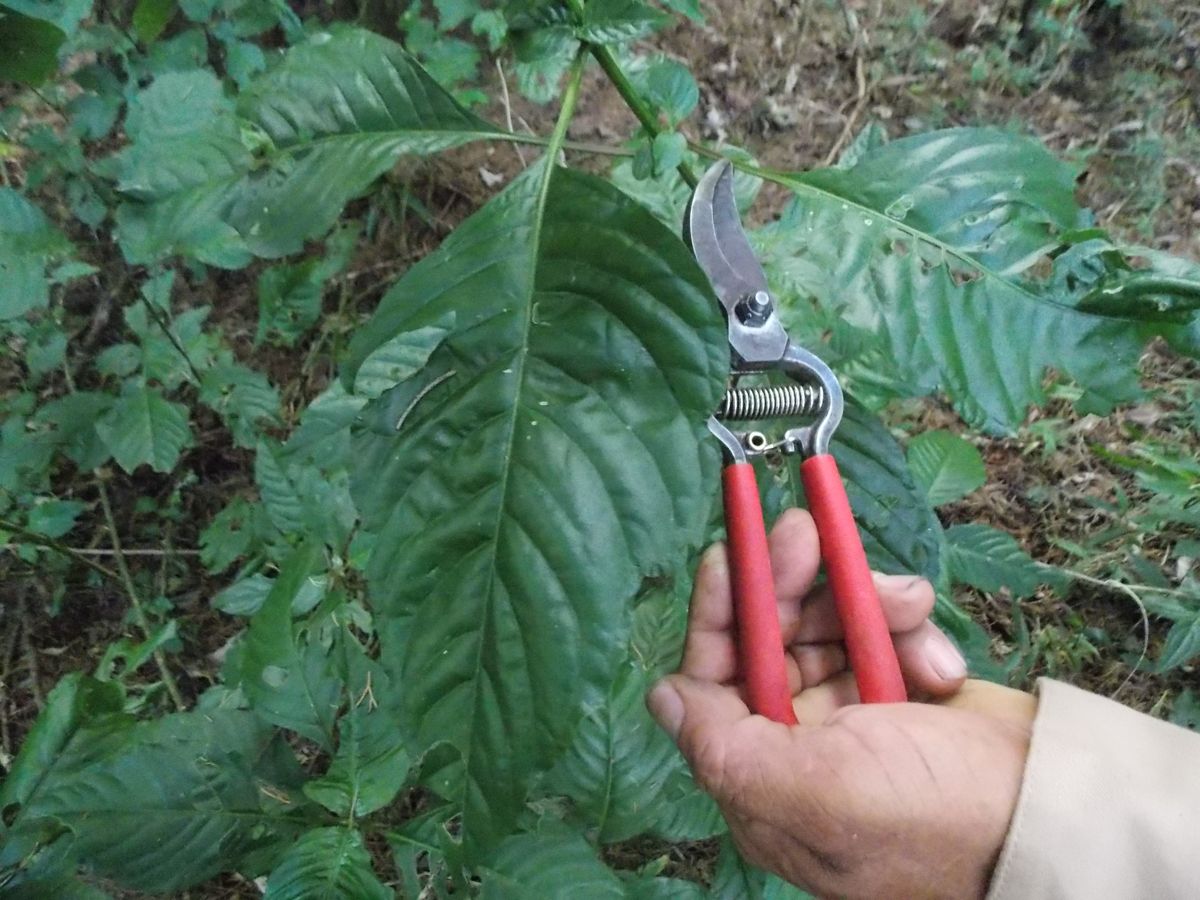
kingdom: Plantae
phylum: Tracheophyta
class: Magnoliopsida
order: Caryophyllales
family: Amaranthaceae
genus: Iresine
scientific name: Iresine
